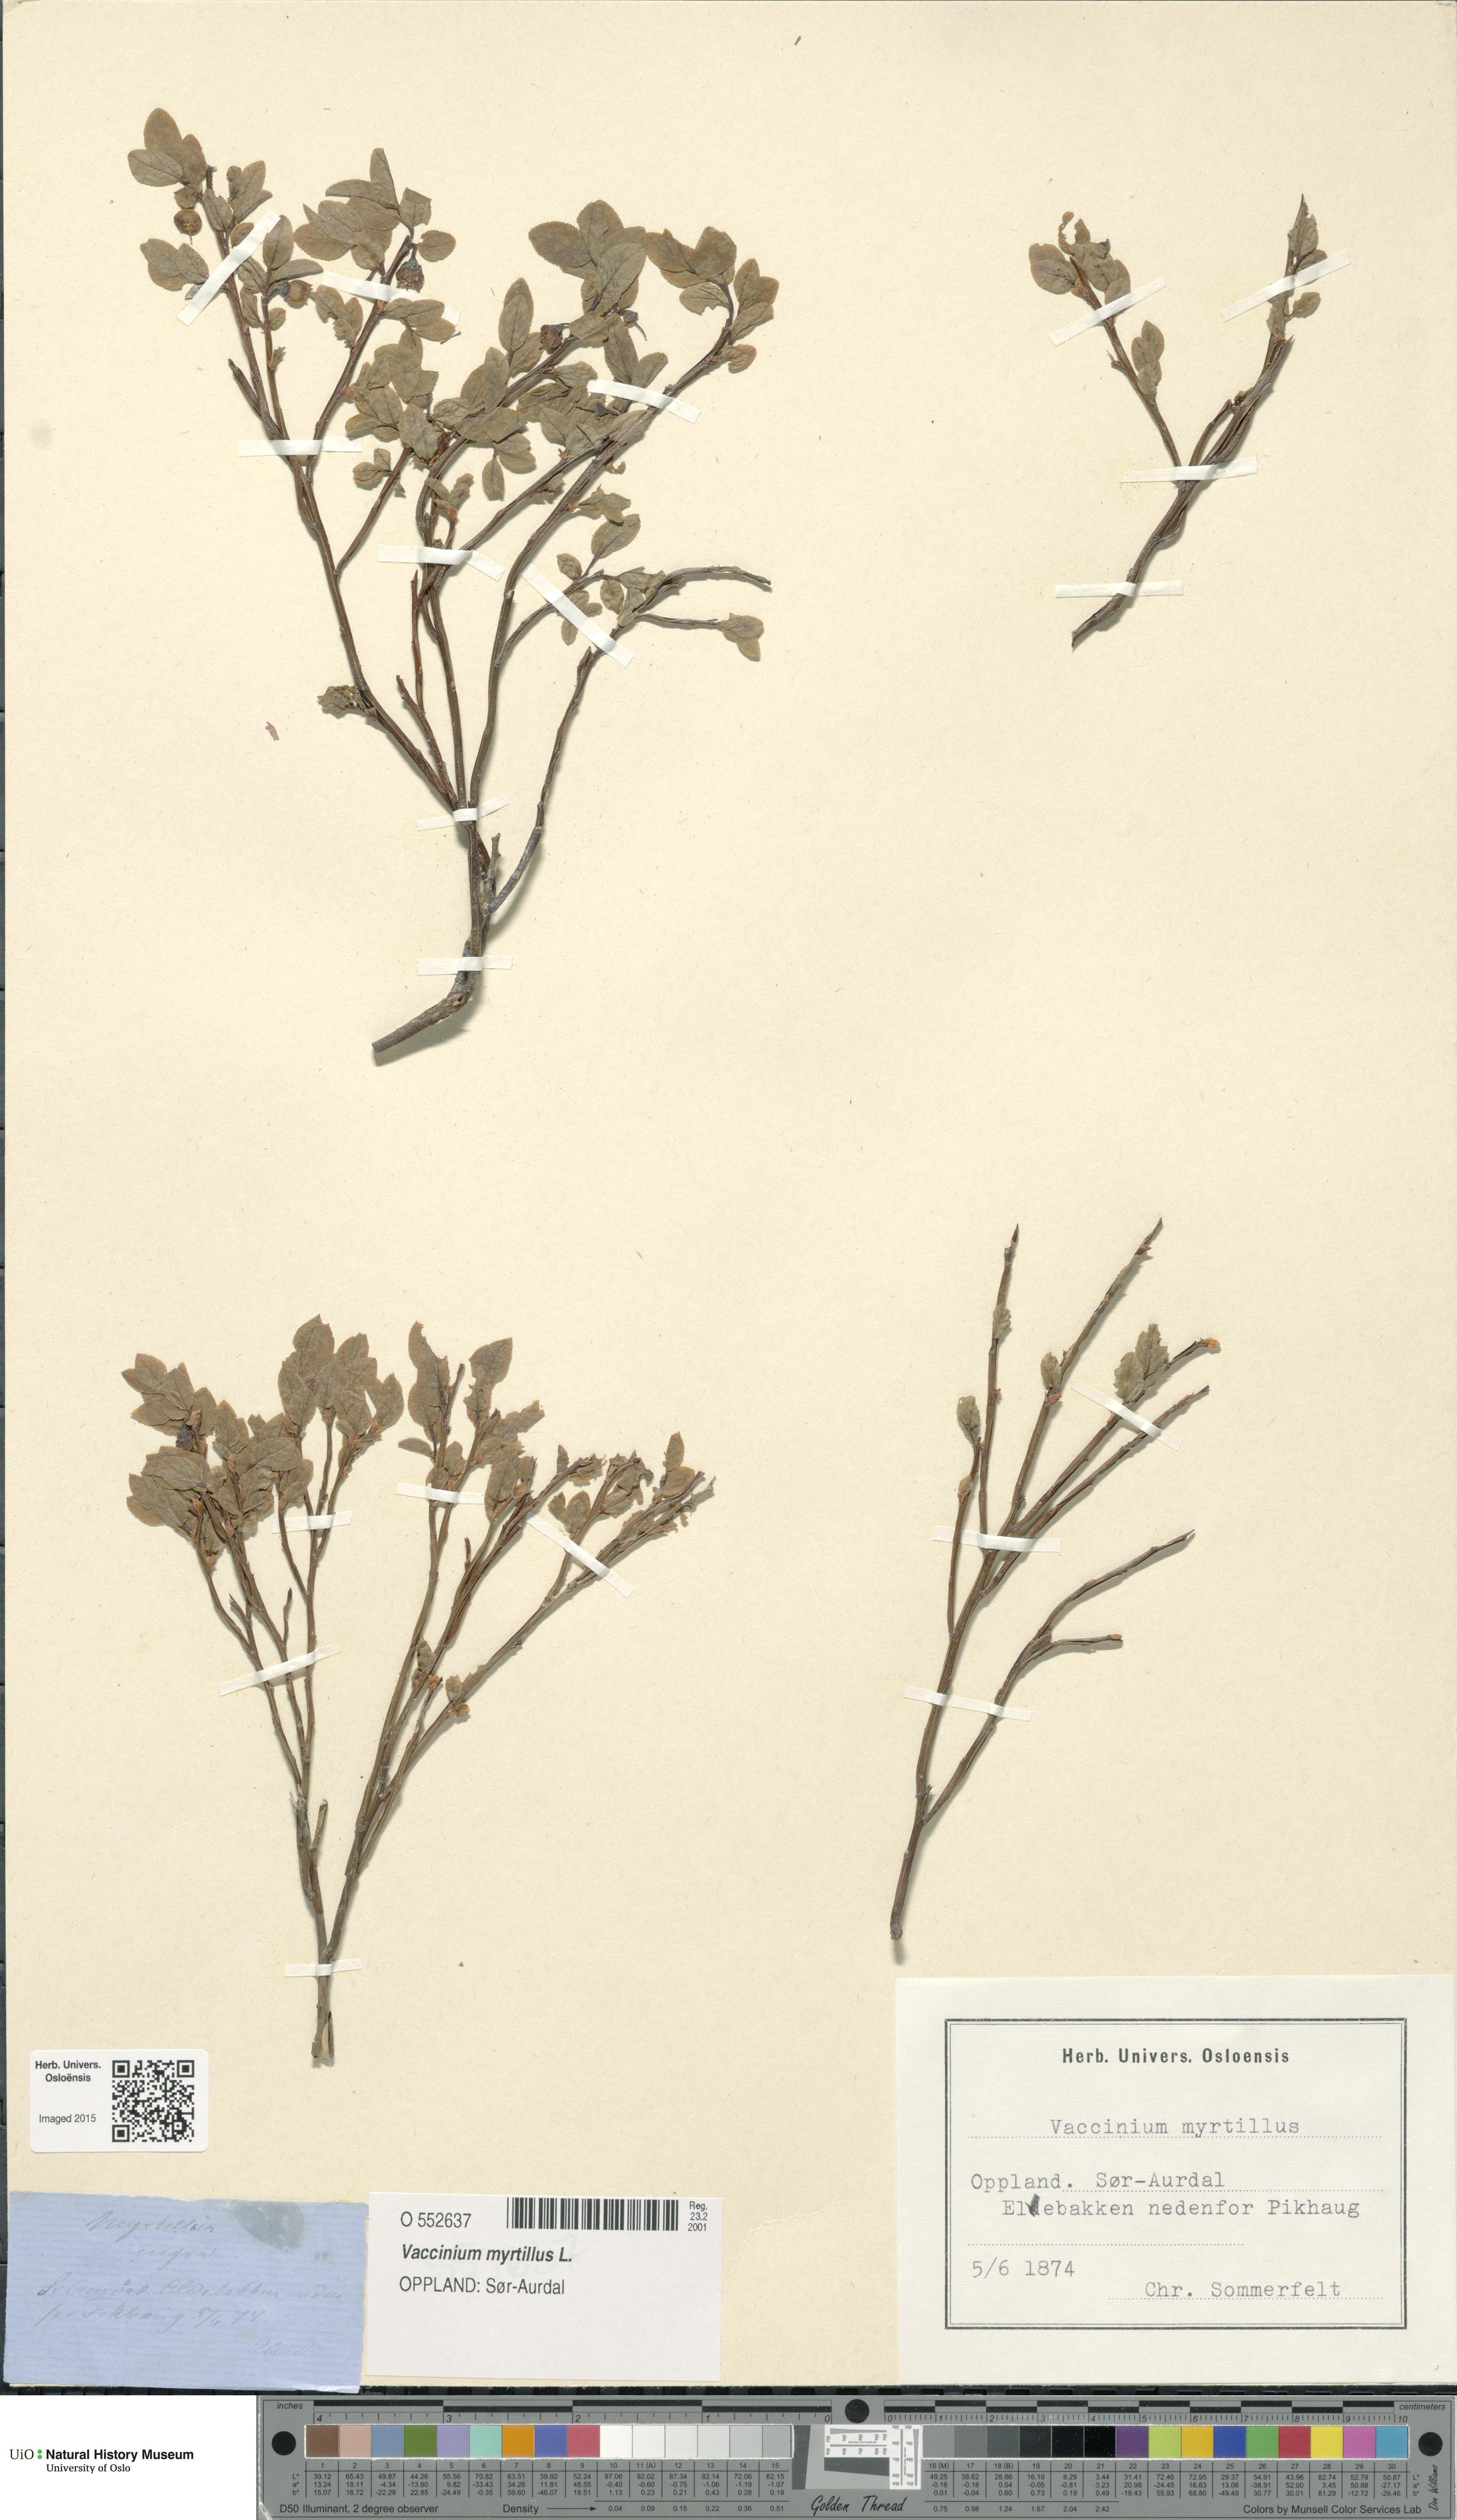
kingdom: Plantae
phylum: Tracheophyta
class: Magnoliopsida
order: Ericales
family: Ericaceae
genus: Vaccinium
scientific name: Vaccinium myrtillus
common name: Bilberry
